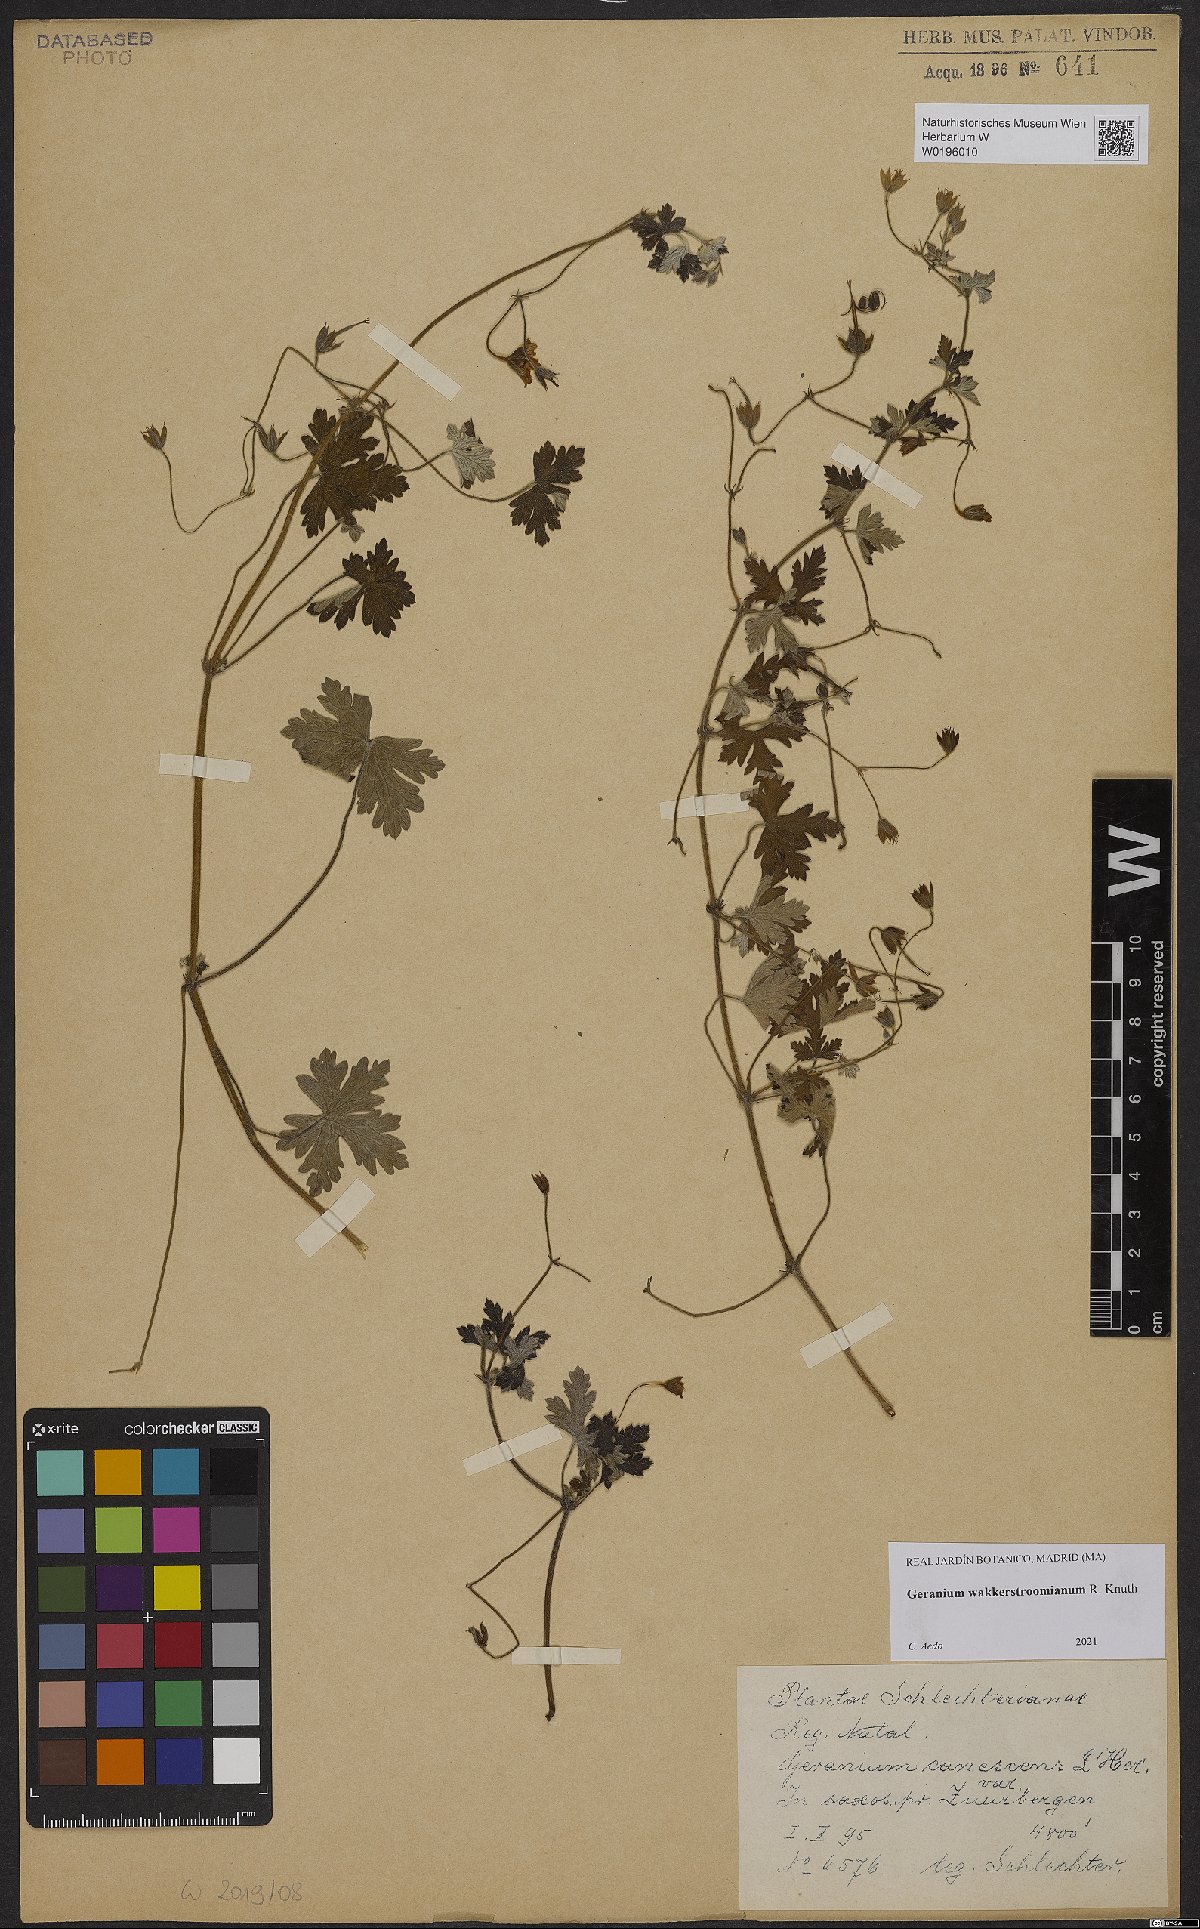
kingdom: Plantae
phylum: Tracheophyta
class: Magnoliopsida
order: Geraniales
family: Geraniaceae
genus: Geranium
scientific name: Geranium wakkerstroomianum
